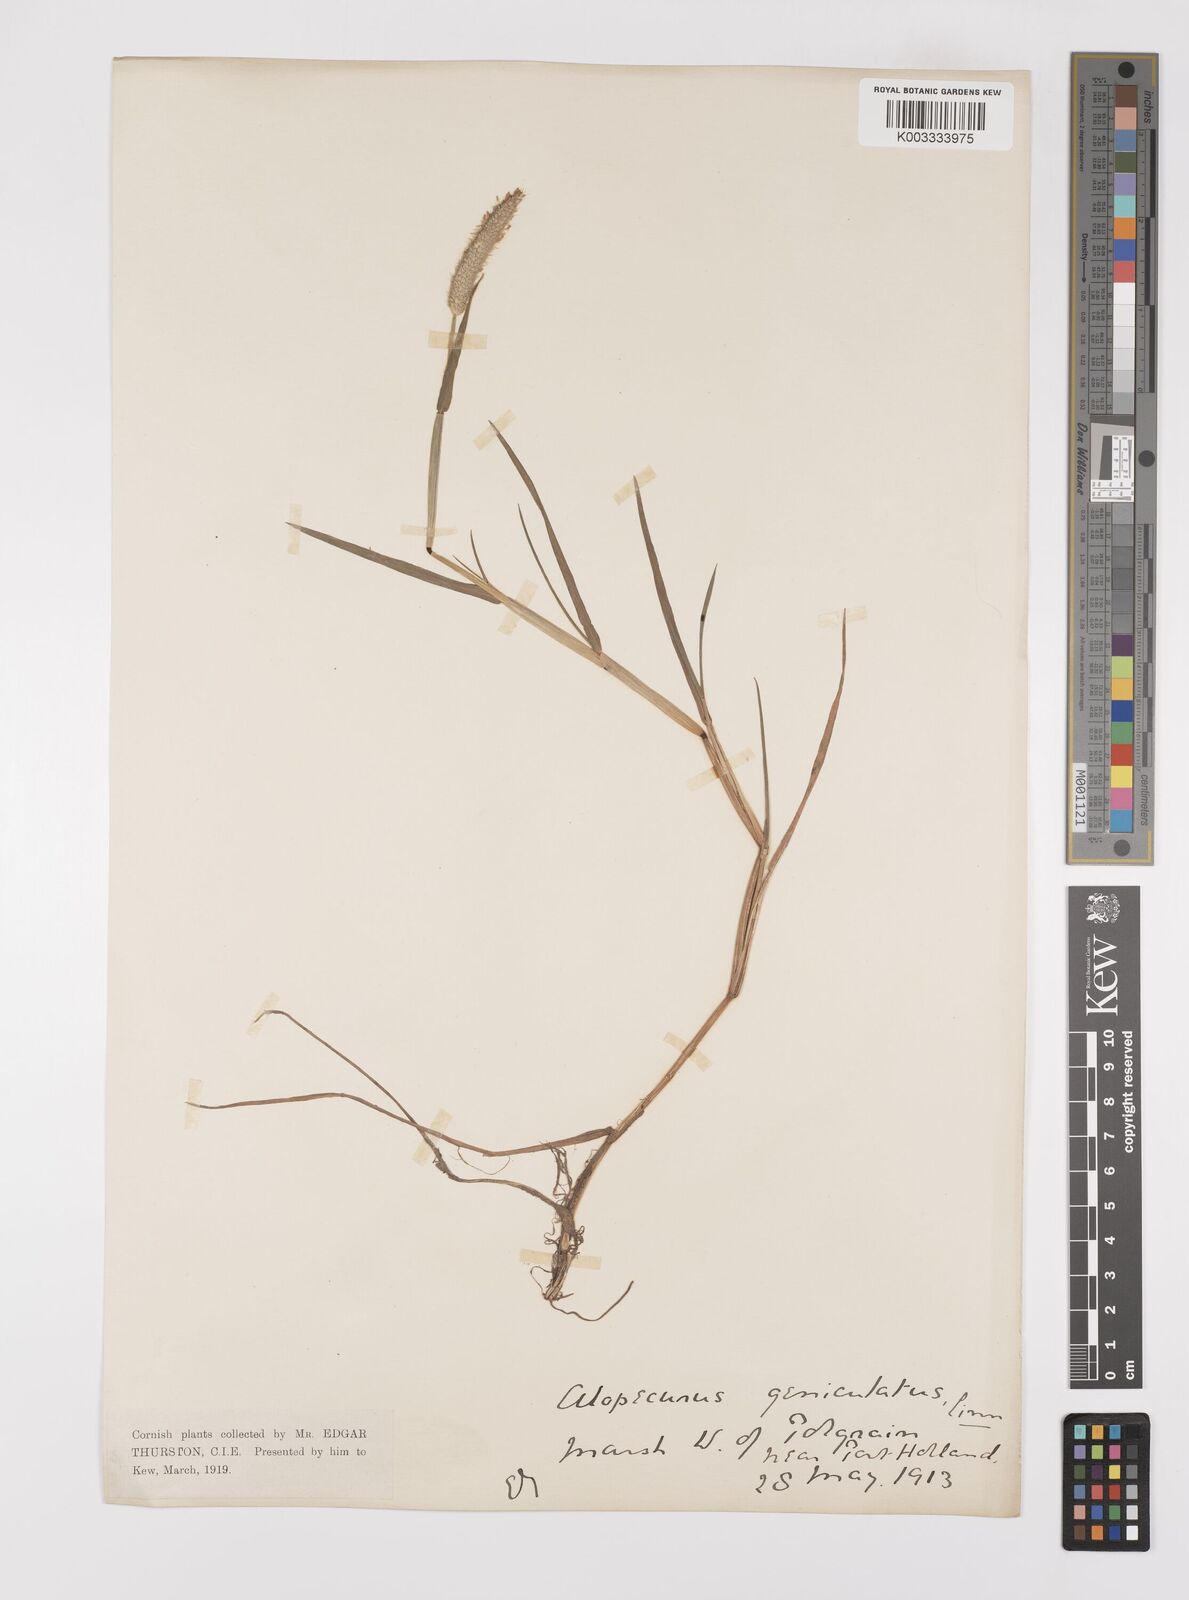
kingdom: Plantae
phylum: Tracheophyta
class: Liliopsida
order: Poales
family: Poaceae
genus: Alopecurus
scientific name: Alopecurus geniculatus
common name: Water foxtail
